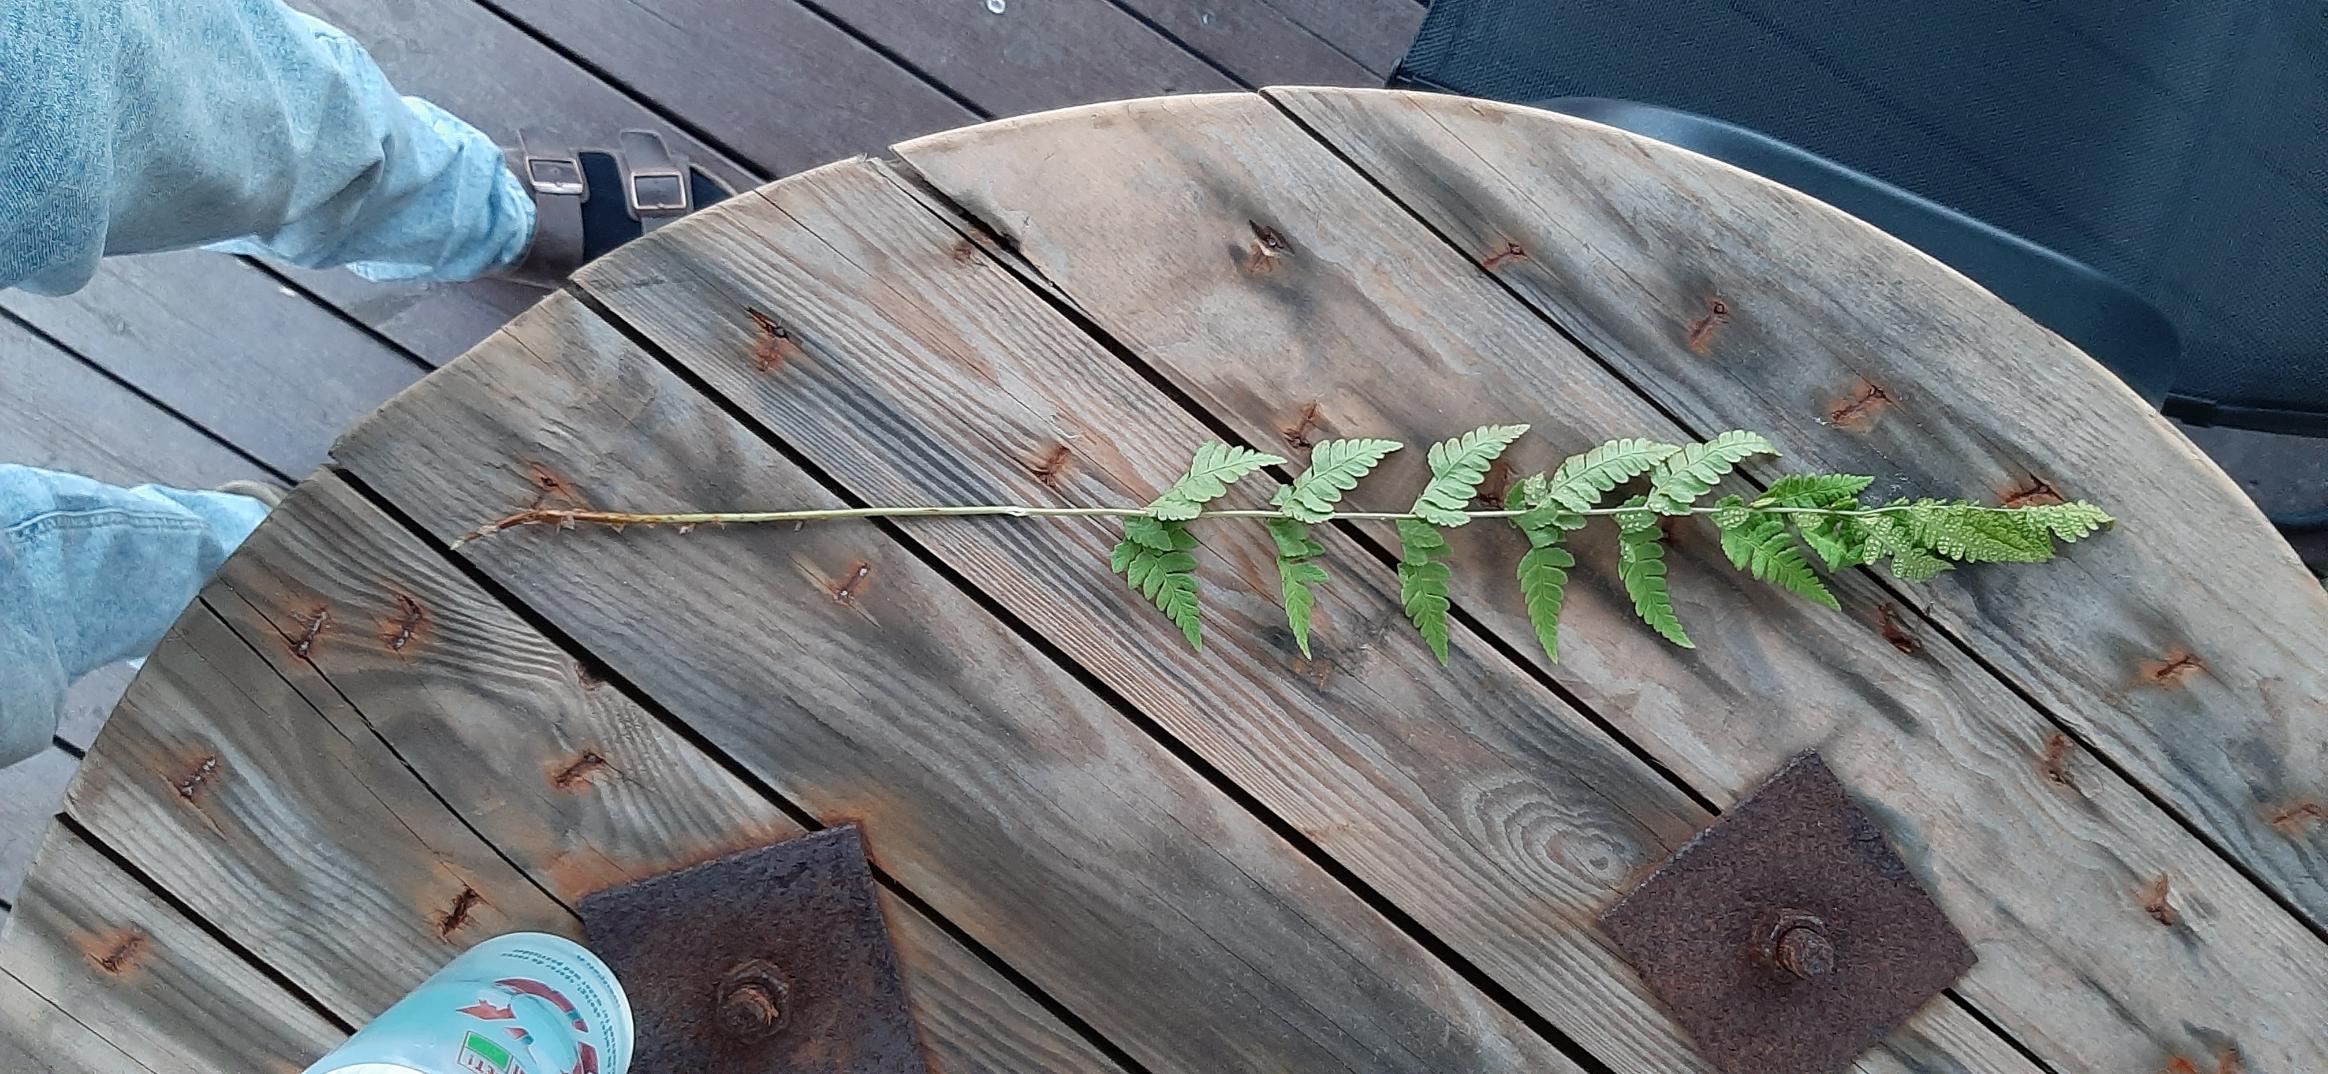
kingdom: Plantae
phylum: Tracheophyta
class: Polypodiopsida
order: Polypodiales
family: Dryopteridaceae
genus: Dryopteris
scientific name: Dryopteris cristata
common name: Butfinnet mangeløv
